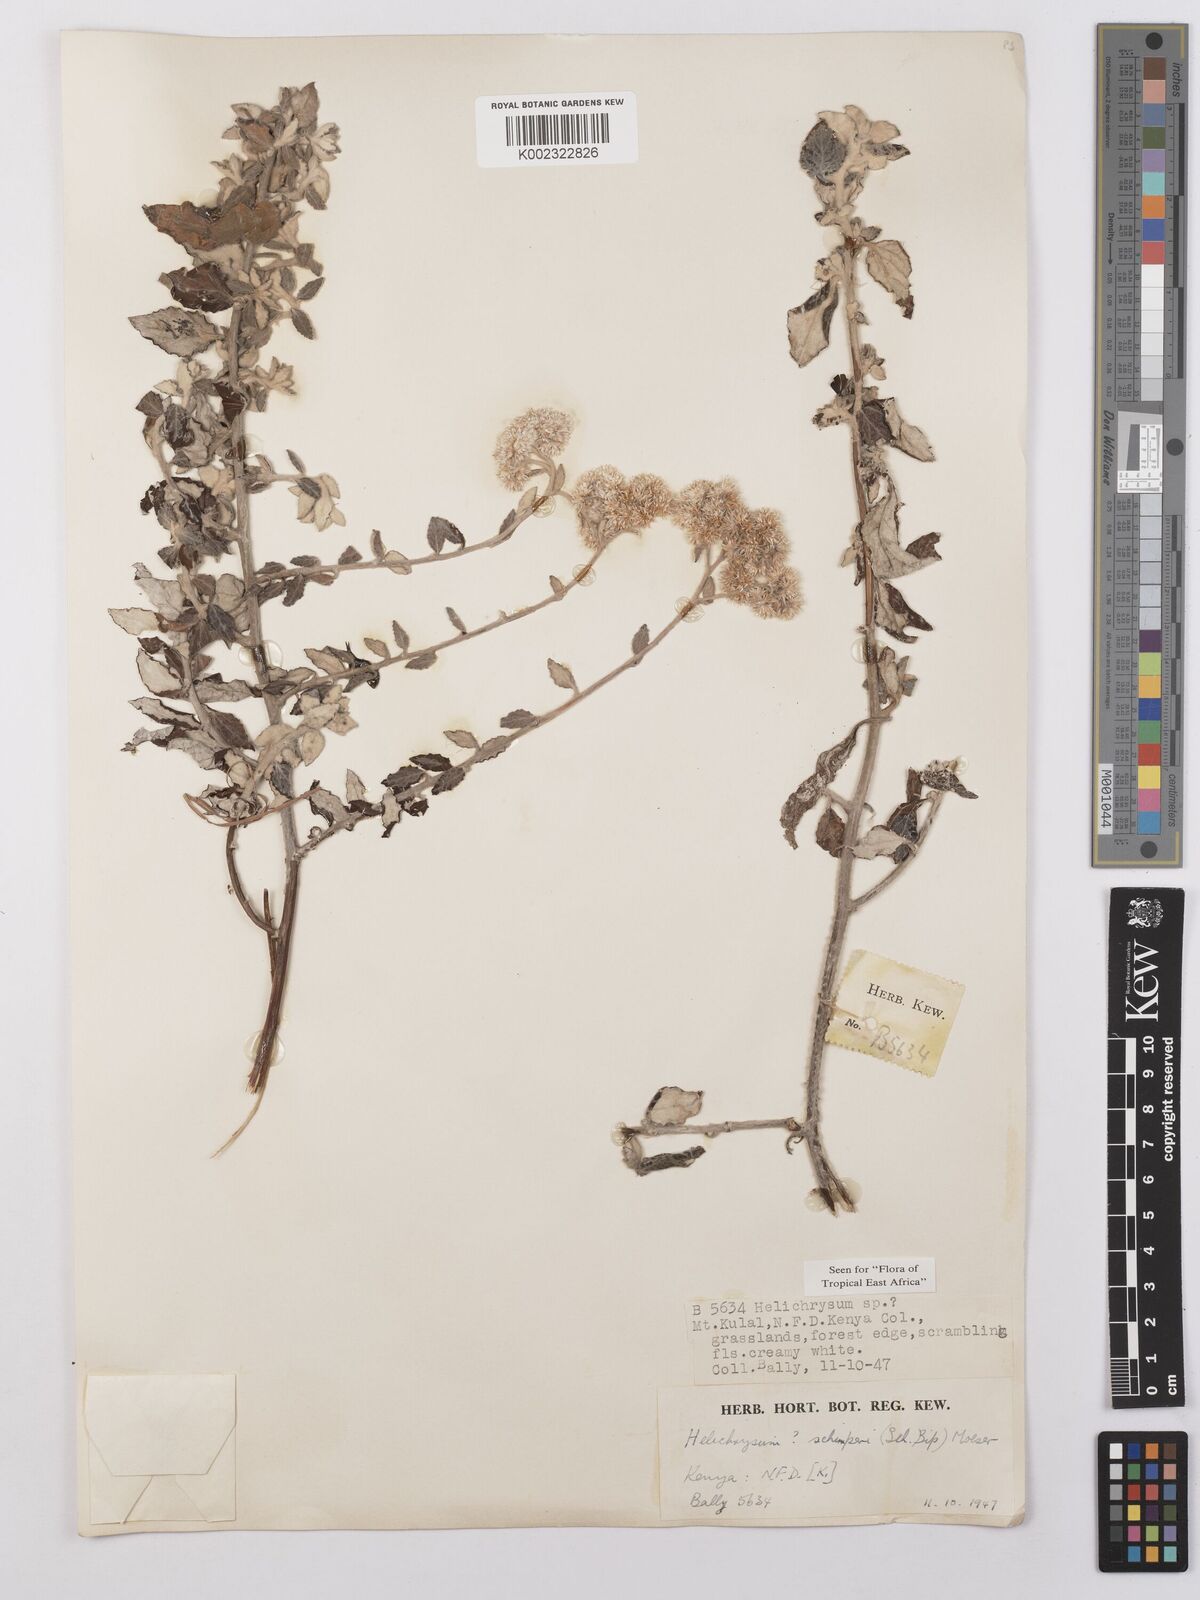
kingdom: Plantae
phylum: Tracheophyta
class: Magnoliopsida
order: Asterales
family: Asteraceae
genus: Helichrysum
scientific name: Helichrysum schimperi
